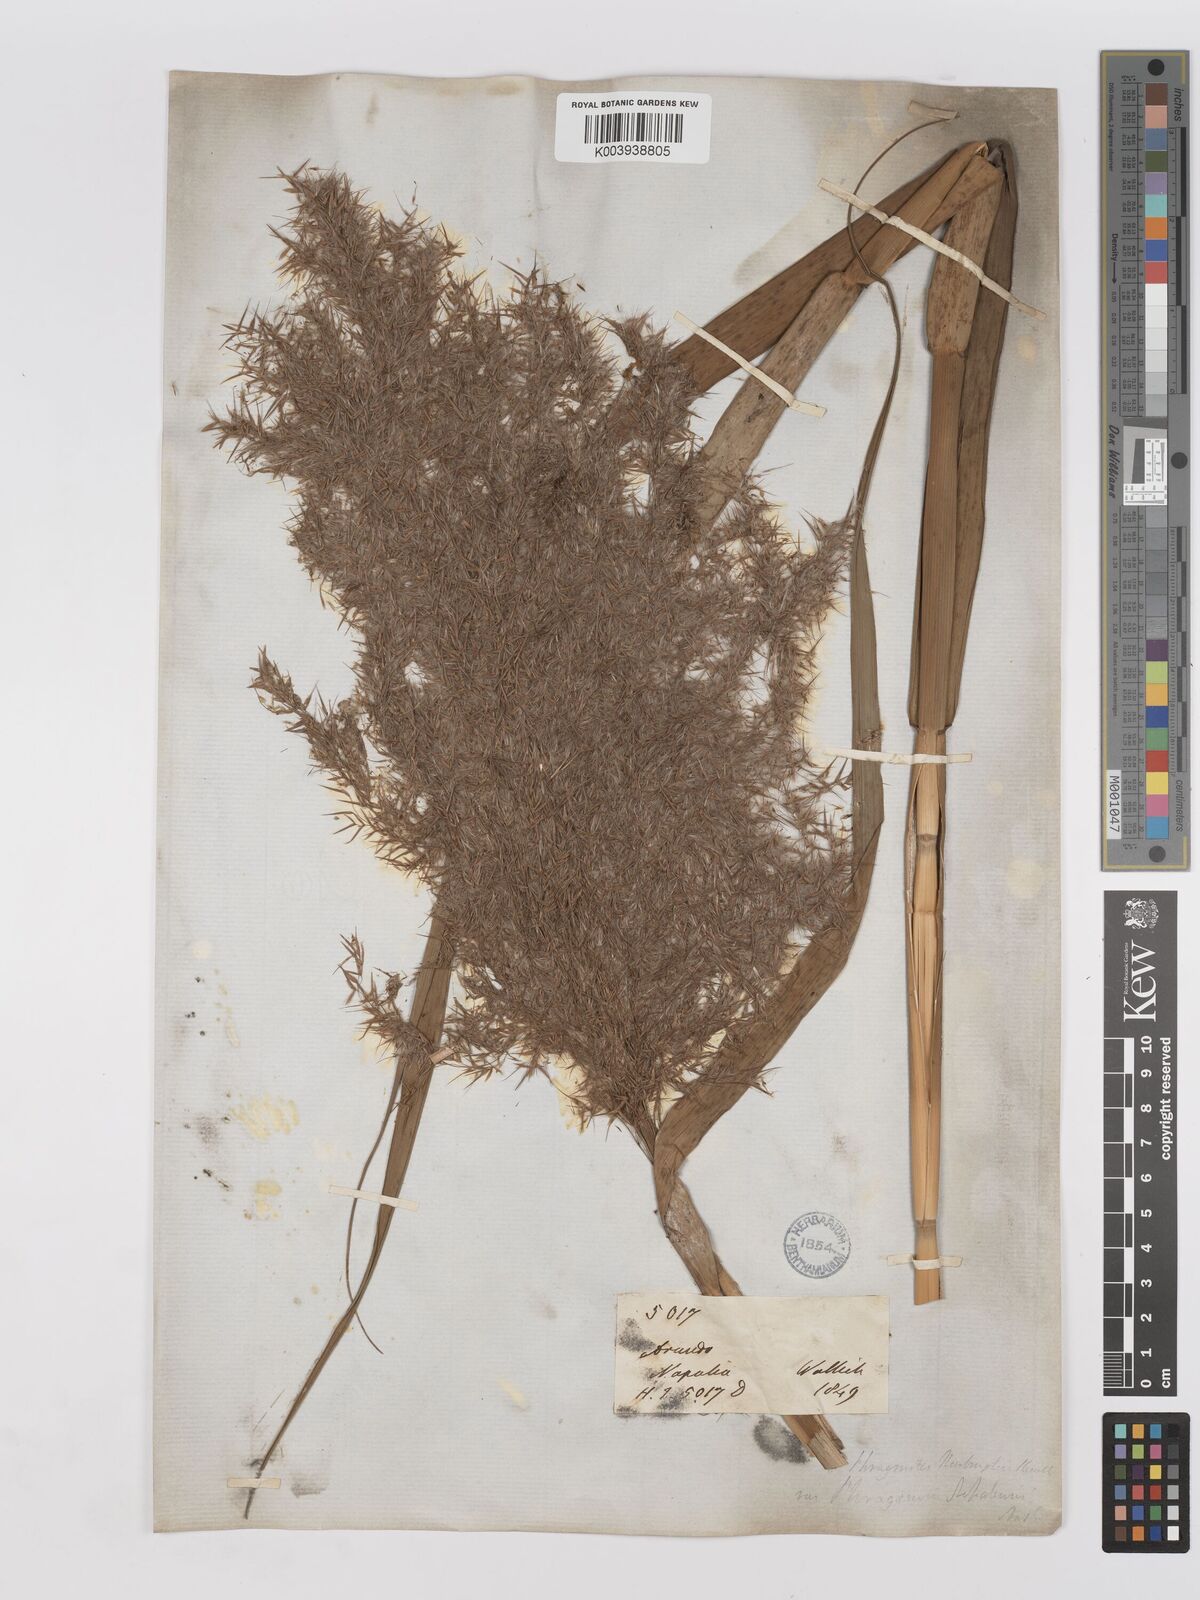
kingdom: Plantae
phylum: Tracheophyta
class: Liliopsida
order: Poales
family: Poaceae
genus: Phragmites
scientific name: Phragmites karka
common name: Tropical reed
